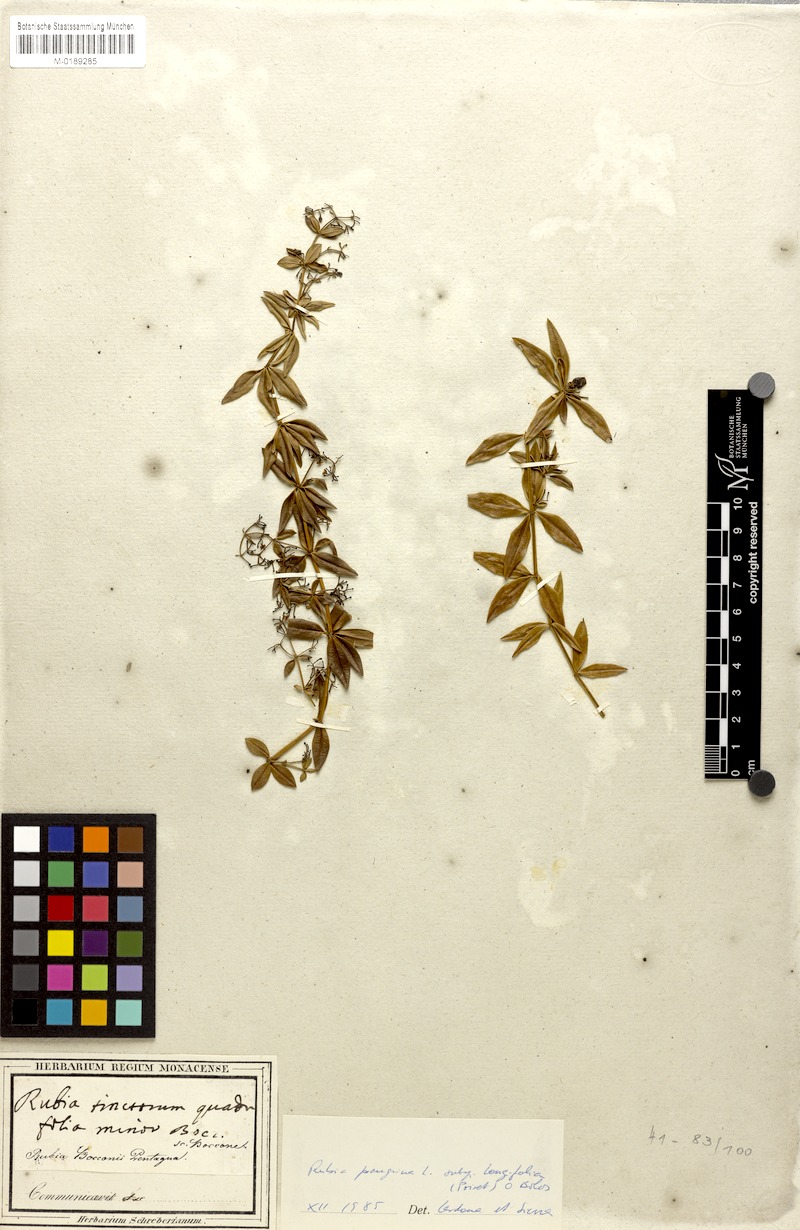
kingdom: Plantae
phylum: Tracheophyta
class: Magnoliopsida
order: Gentianales
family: Rubiaceae
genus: Rubia
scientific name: Rubia peregrina
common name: Wild madder
